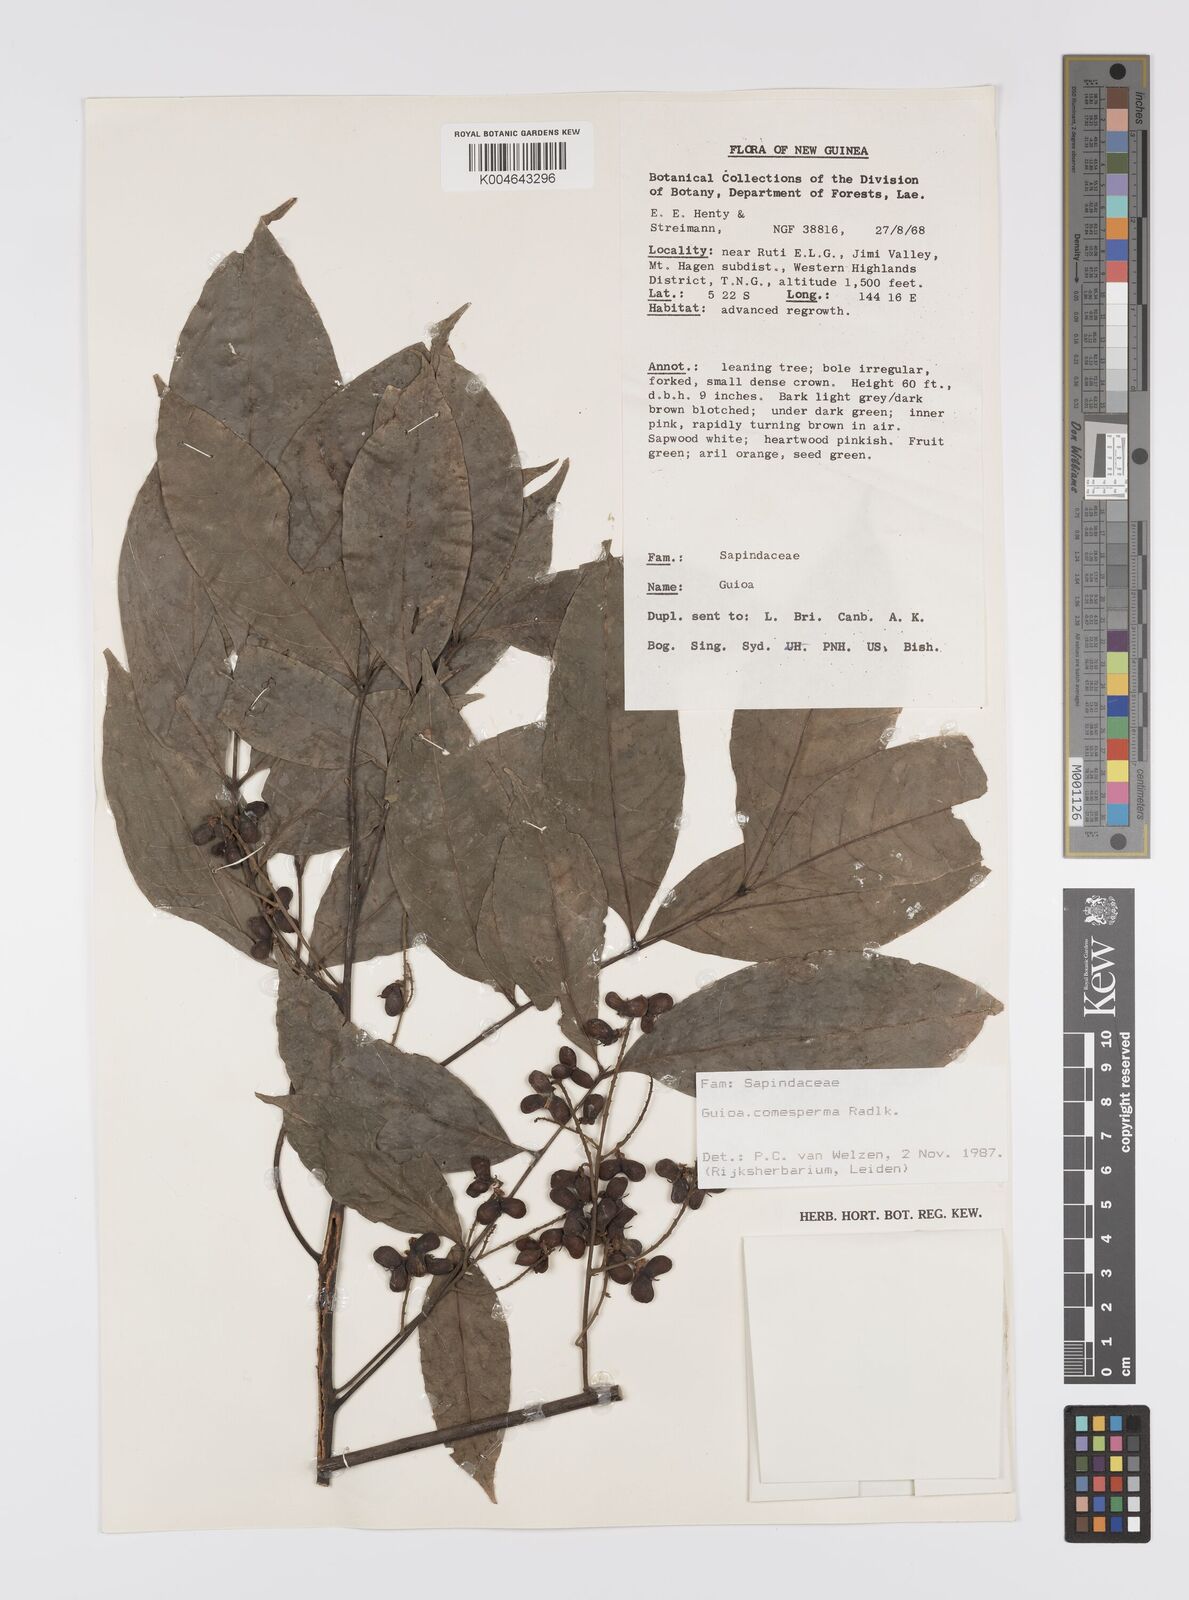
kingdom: Plantae
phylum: Tracheophyta
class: Magnoliopsida
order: Sapindales
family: Sapindaceae
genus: Guioa
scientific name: Guioa comesperma
